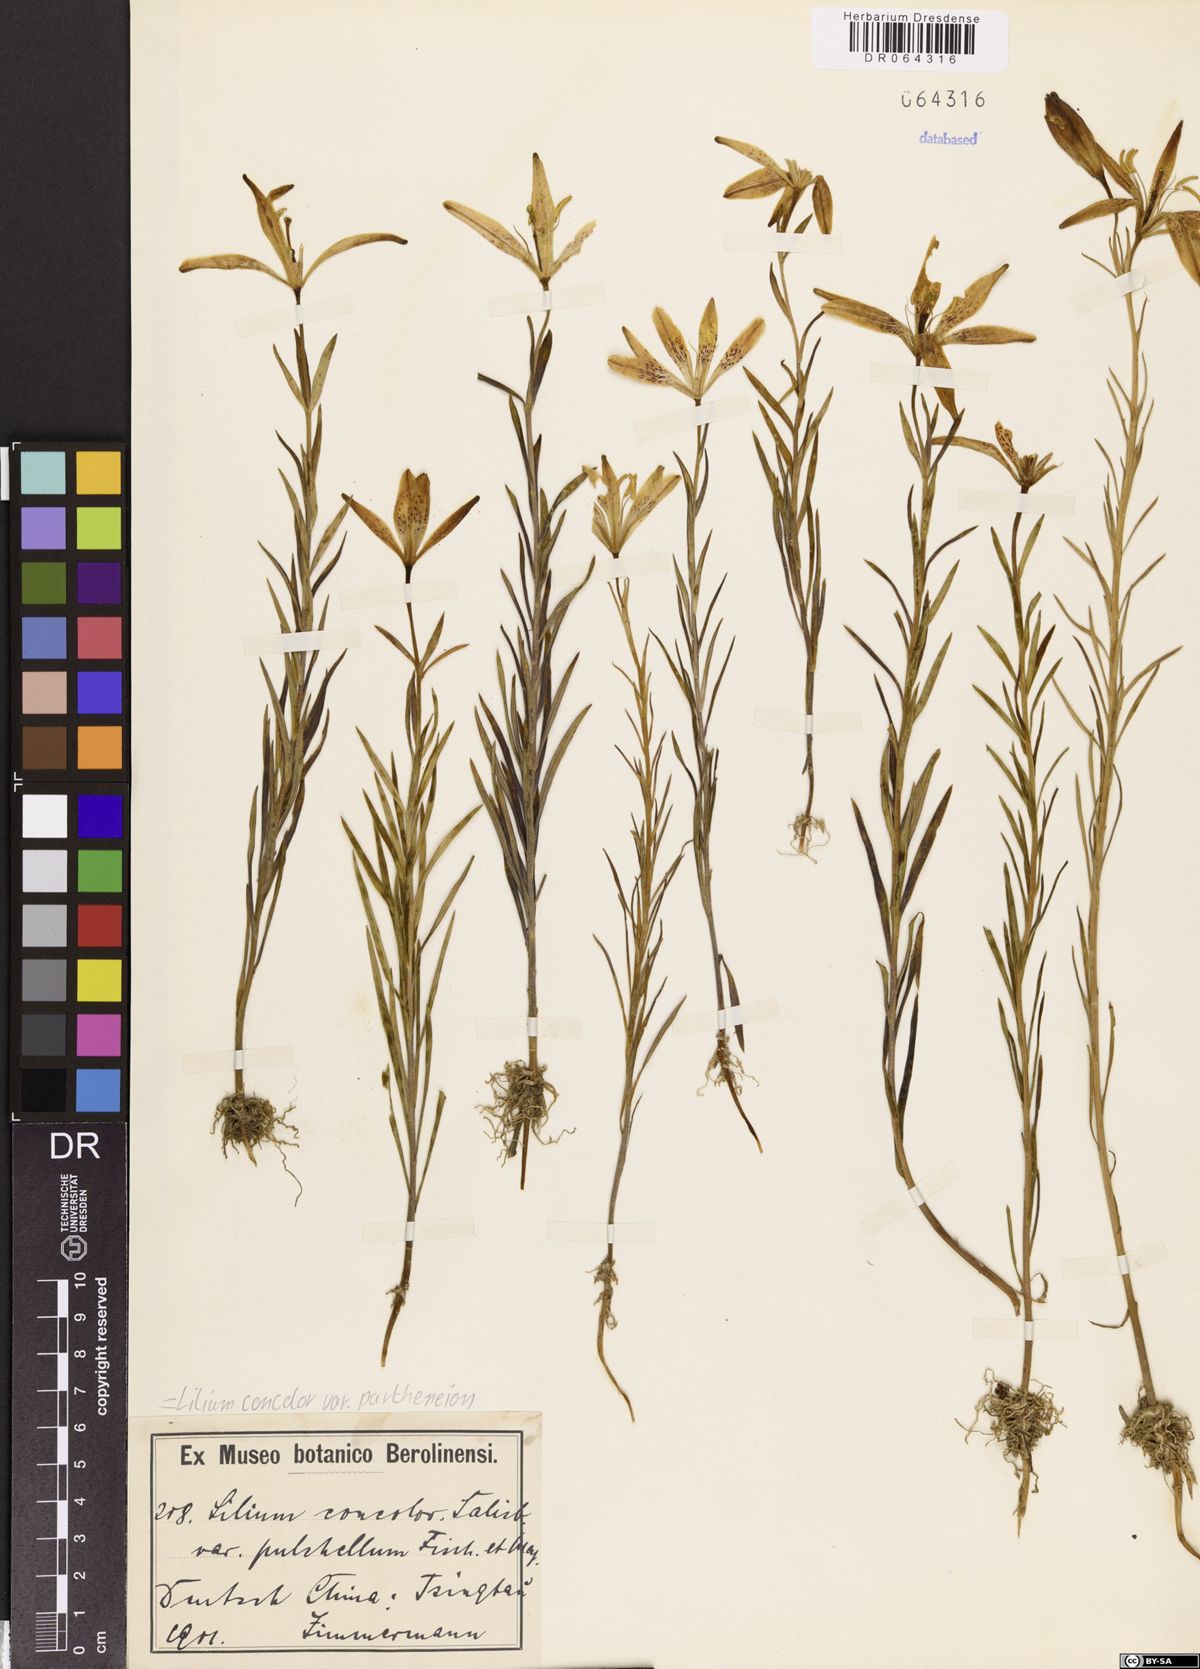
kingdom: Plantae
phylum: Tracheophyta
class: Liliopsida
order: Liliales
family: Liliaceae
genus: Lilium
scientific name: Lilium concolor
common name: Morning-star lily
